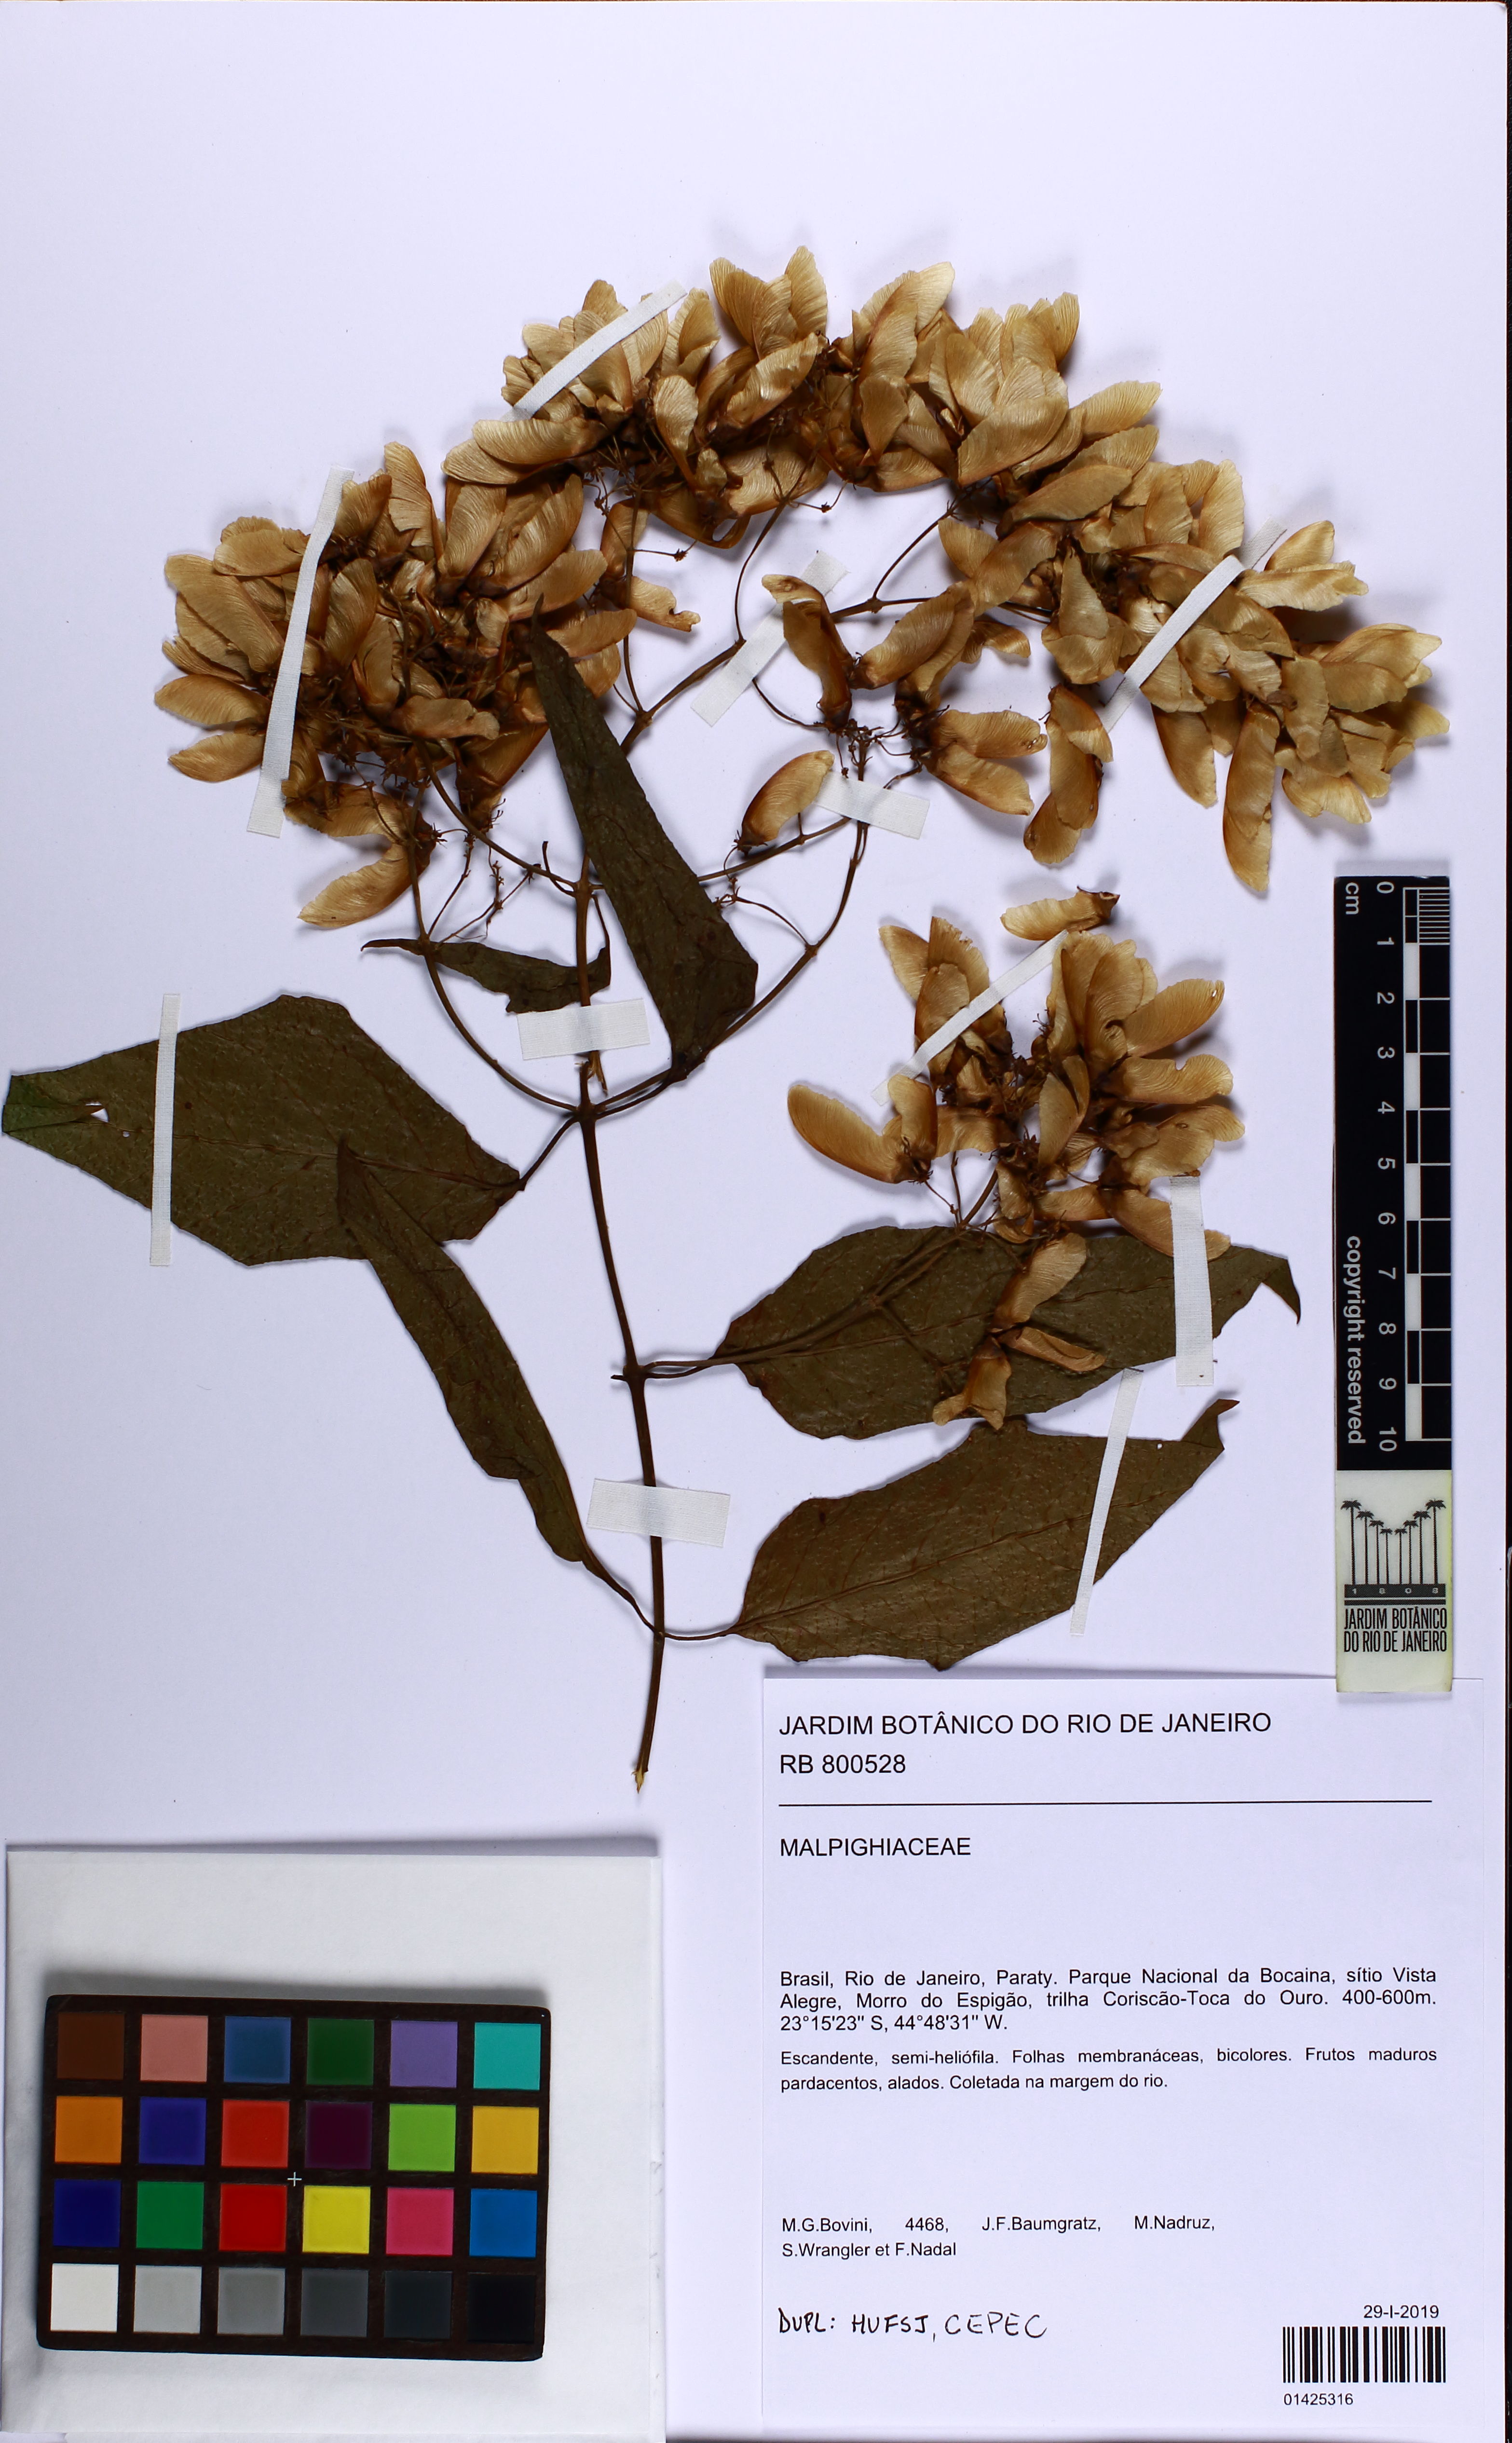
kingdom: Plantae
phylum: Tracheophyta
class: Magnoliopsida
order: Malpighiales
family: Malpighiaceae
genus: Heteropterys
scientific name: Heteropterys
